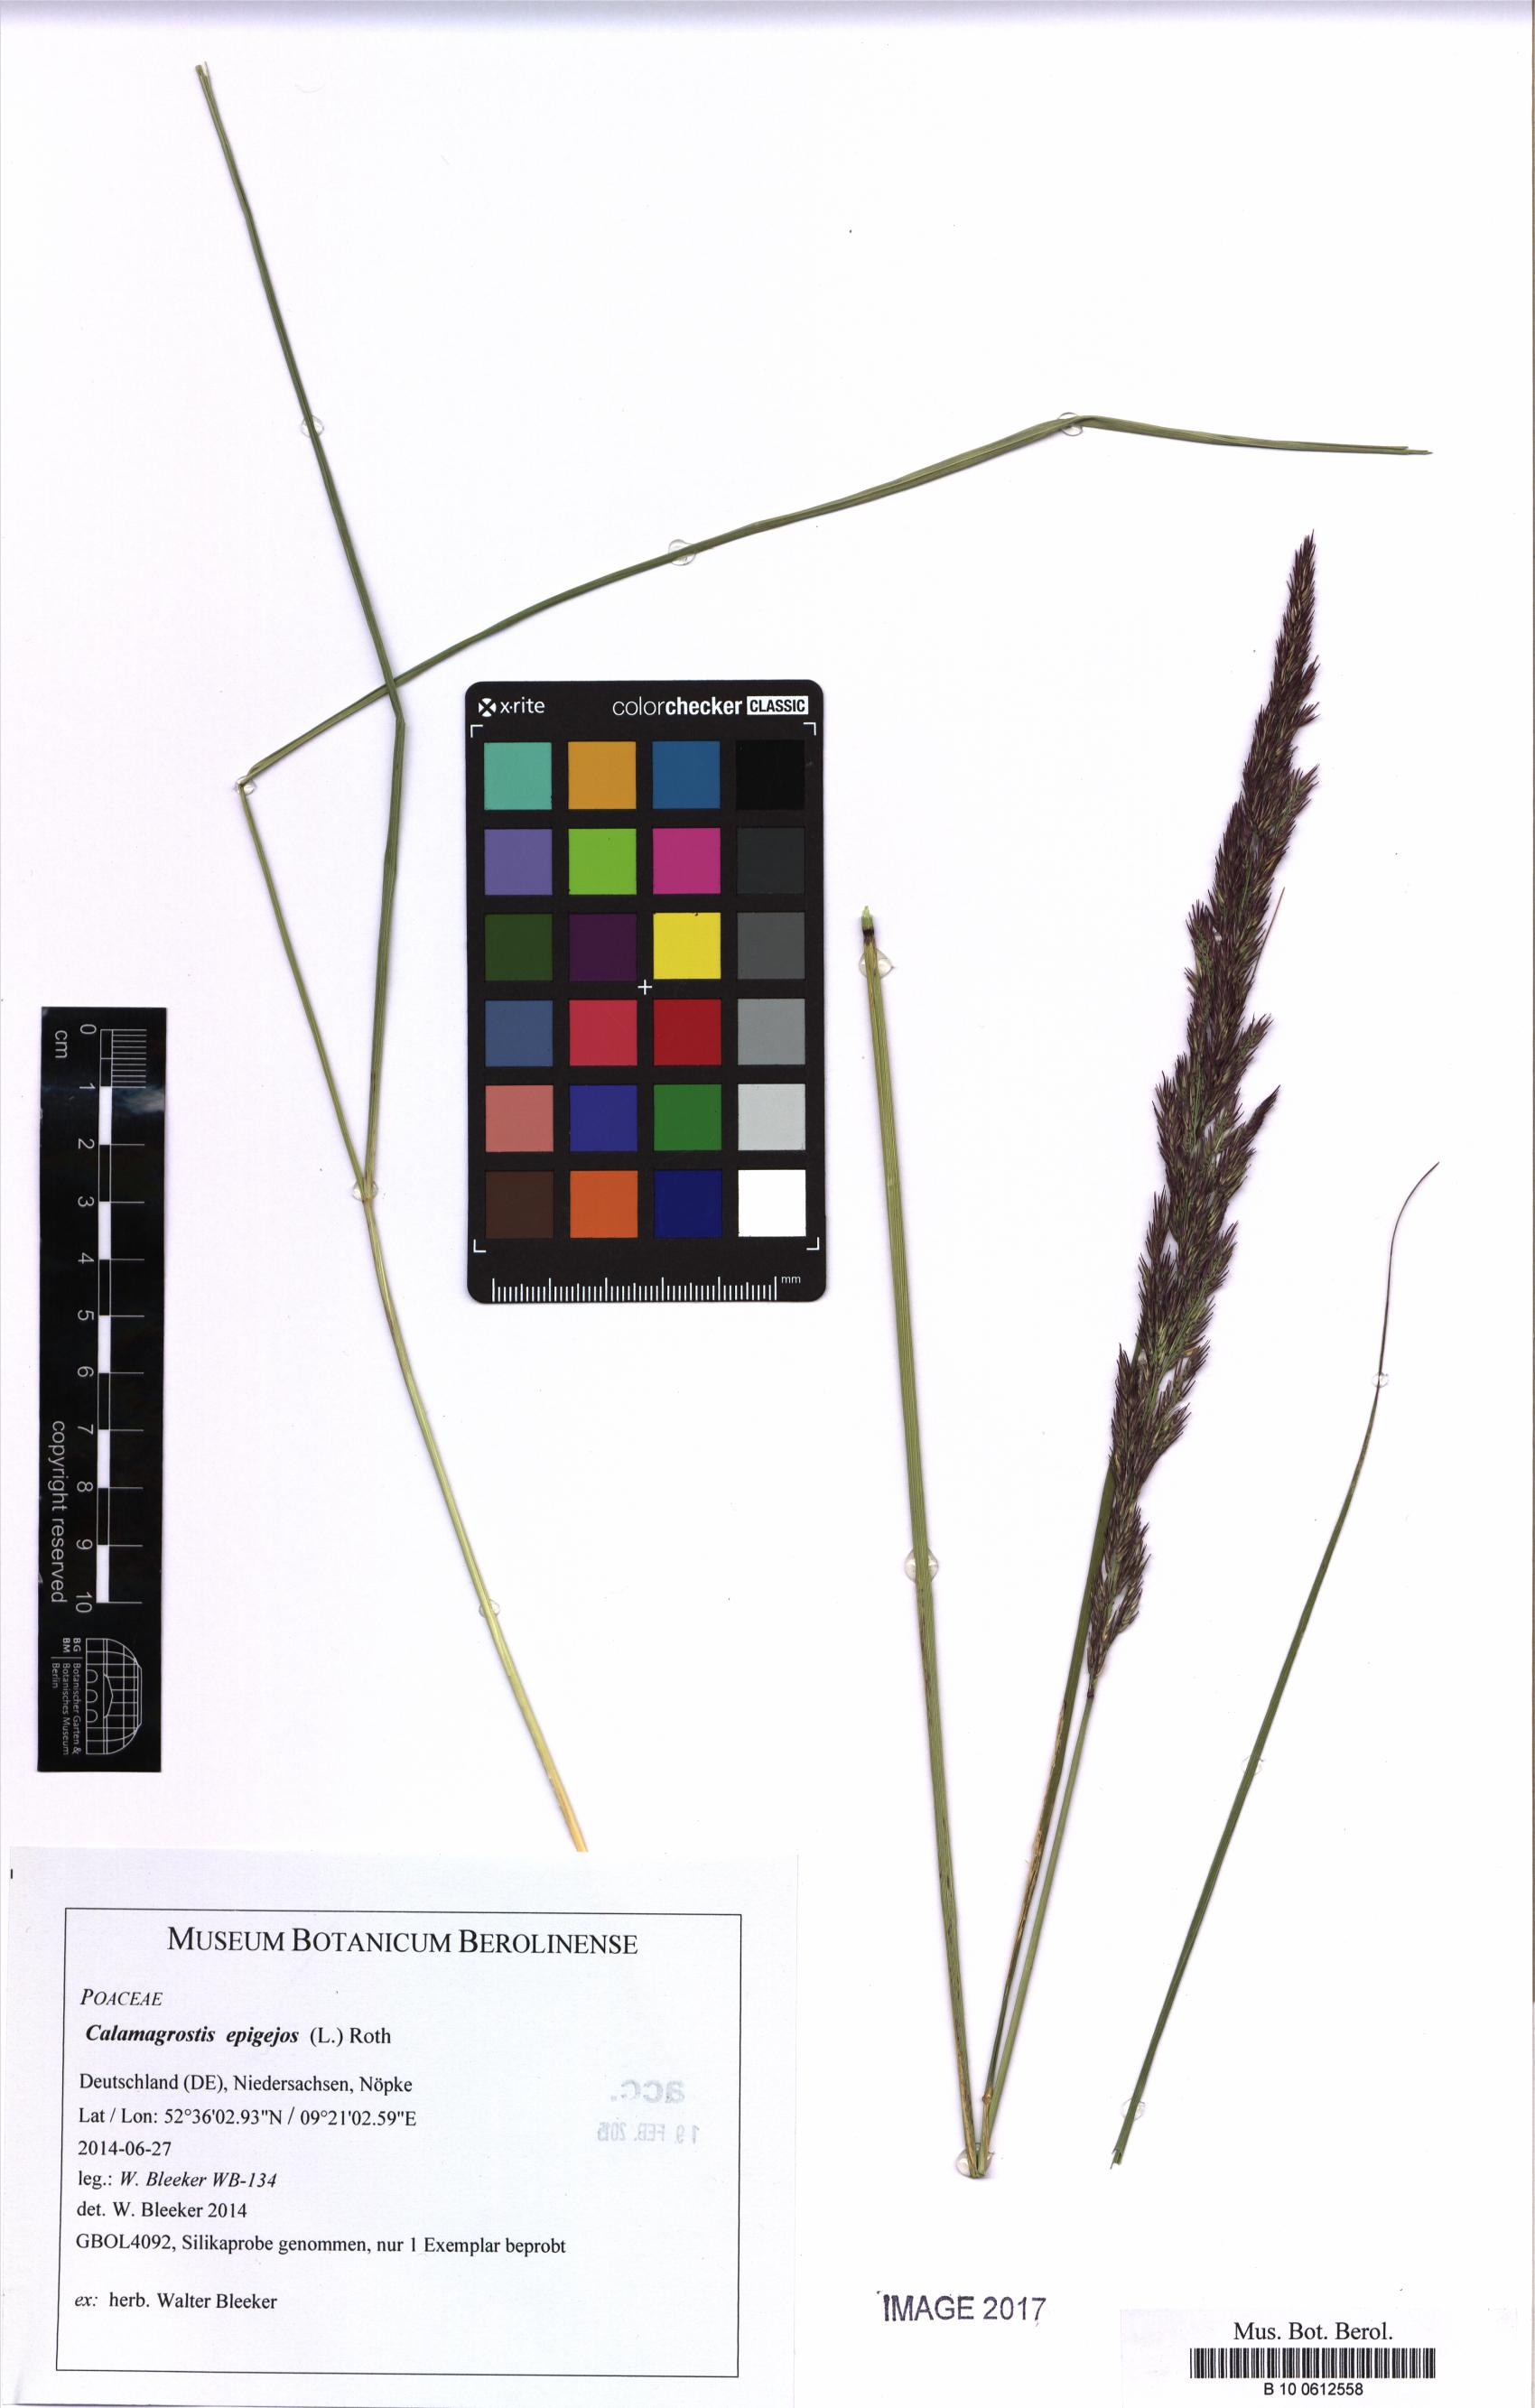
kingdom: Plantae
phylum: Tracheophyta
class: Liliopsida
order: Poales
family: Poaceae
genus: Calamagrostis
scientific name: Calamagrostis epigejos
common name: Wood small-reed
